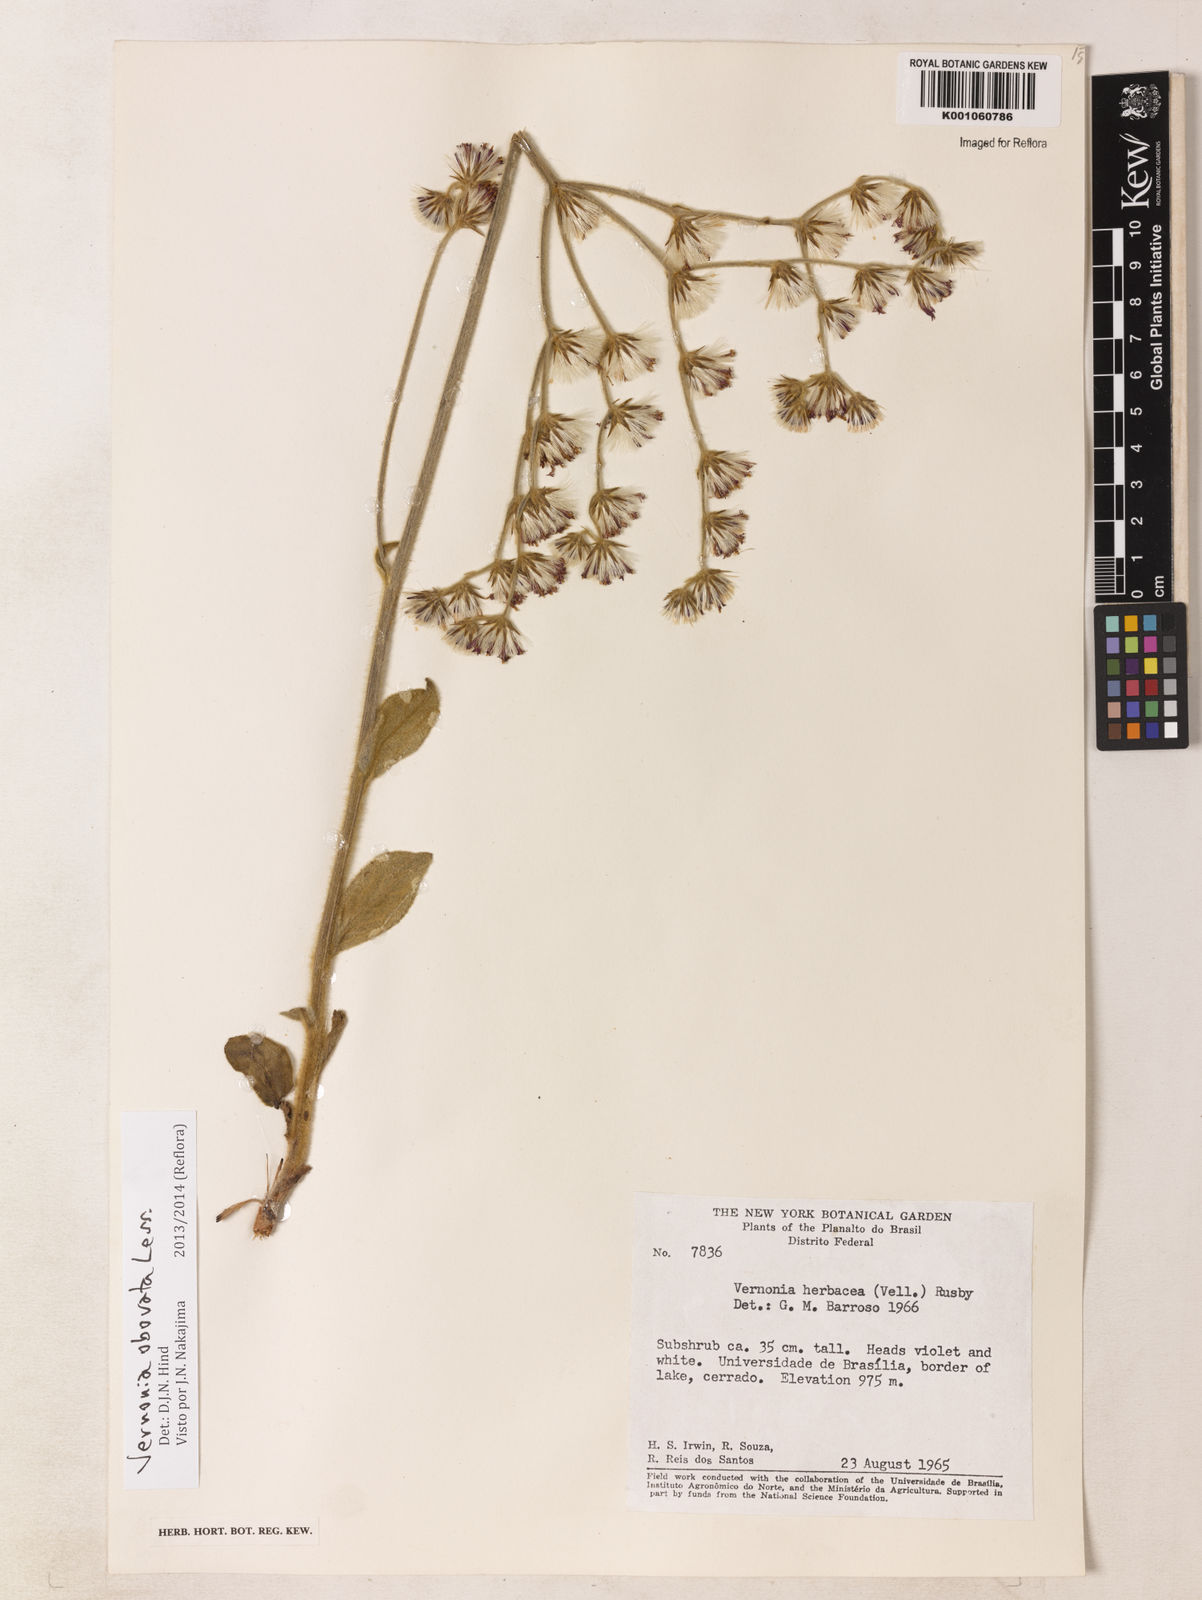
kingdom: Plantae
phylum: Tracheophyta
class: Magnoliopsida
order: Asterales
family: Asteraceae
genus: Chrysolaena
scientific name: Chrysolaena obovata
